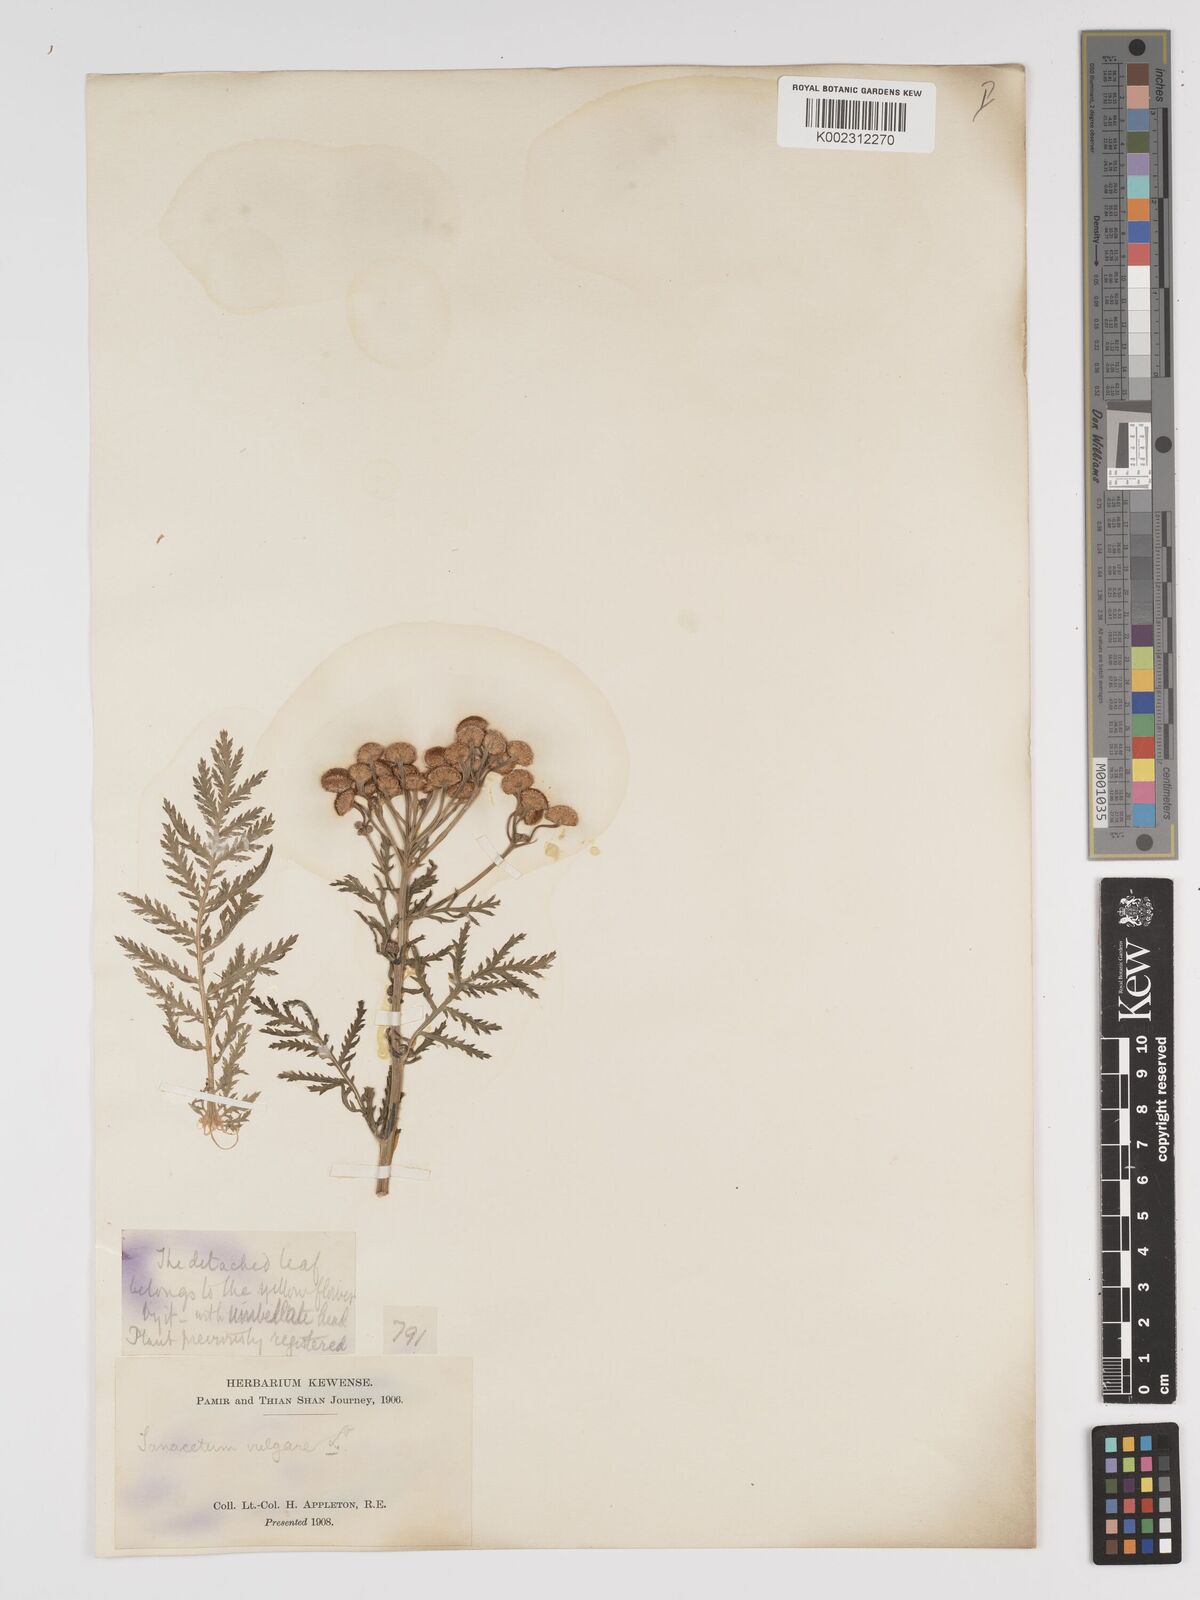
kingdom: Plantae
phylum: Tracheophyta
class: Magnoliopsida
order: Asterales
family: Asteraceae
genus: Tanacetum
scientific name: Tanacetum vulgare
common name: Common tansy
